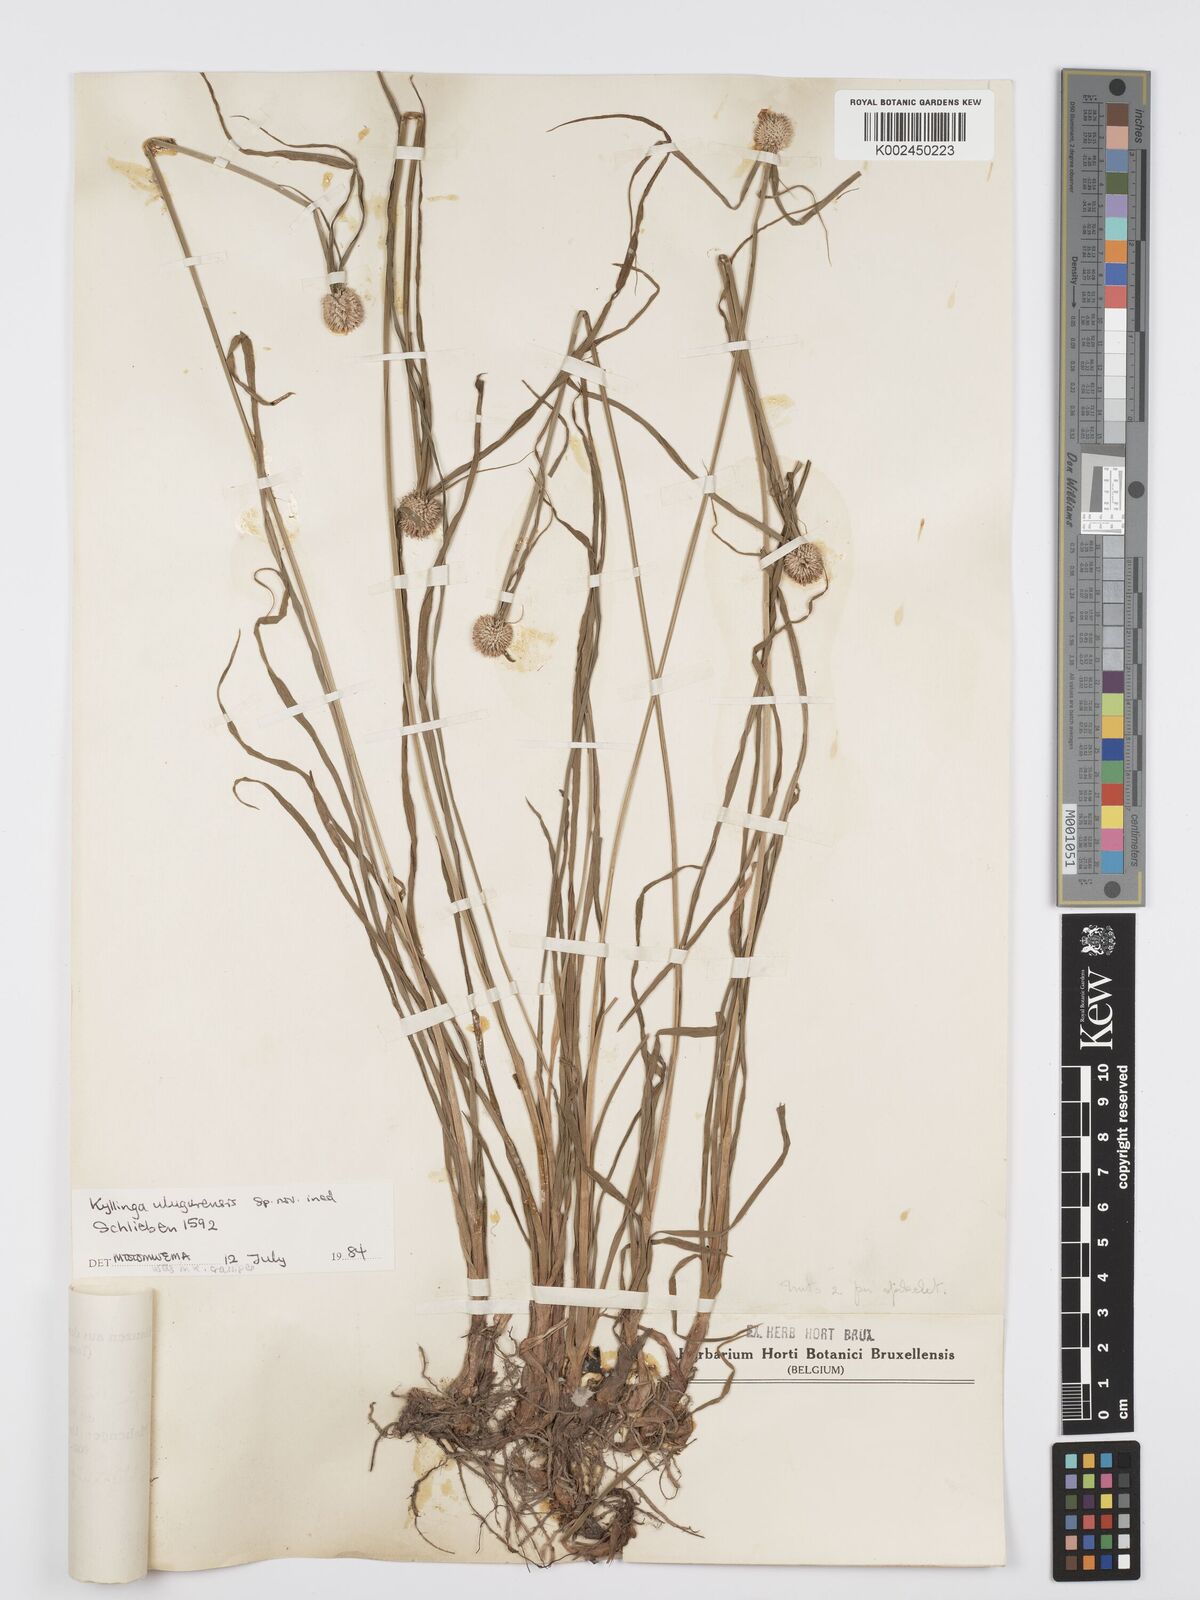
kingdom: Plantae
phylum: Tracheophyta
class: Liliopsida
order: Poales
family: Cyperaceae
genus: Cyperus
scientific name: Cyperus
